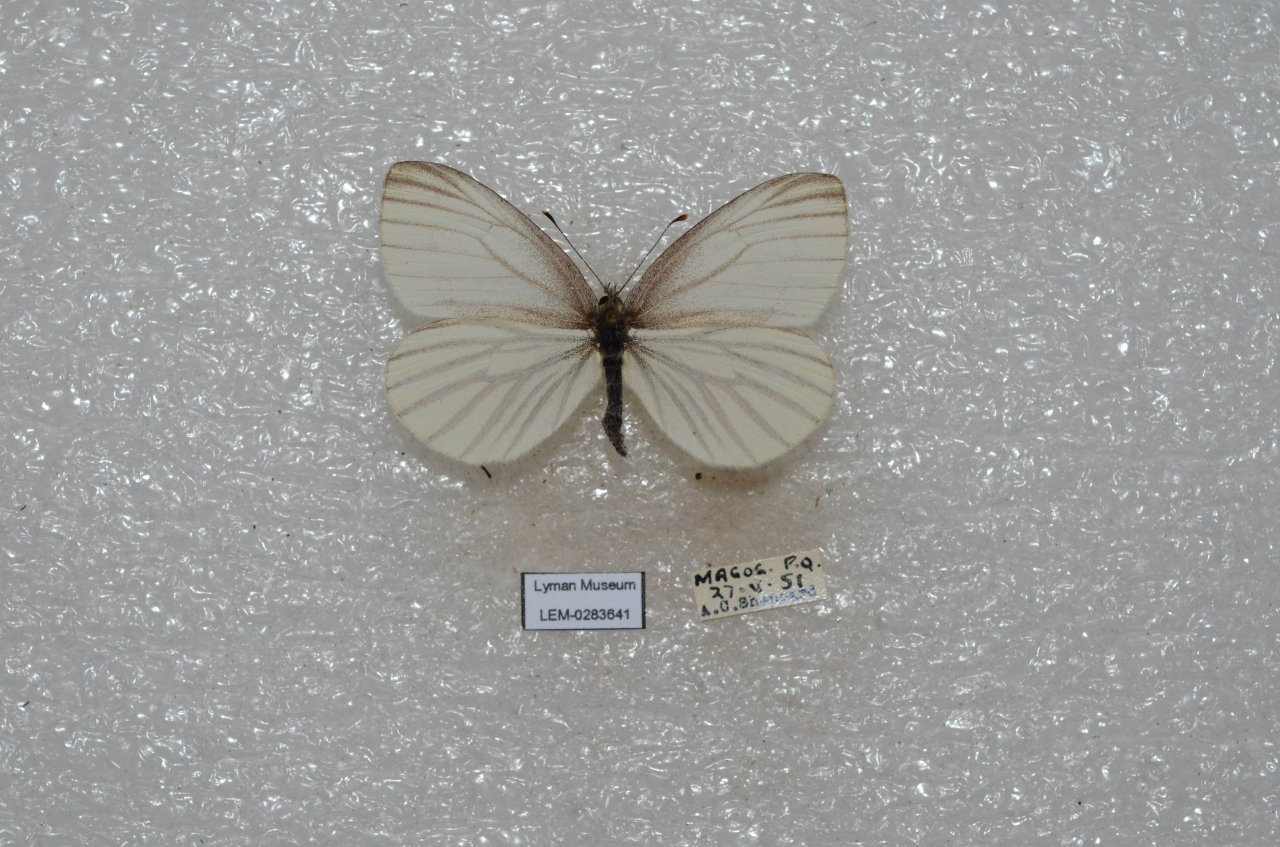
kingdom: Animalia
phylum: Arthropoda
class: Insecta
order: Lepidoptera
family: Pieridae
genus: Pieris
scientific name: Pieris oleracea
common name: Mustard White
